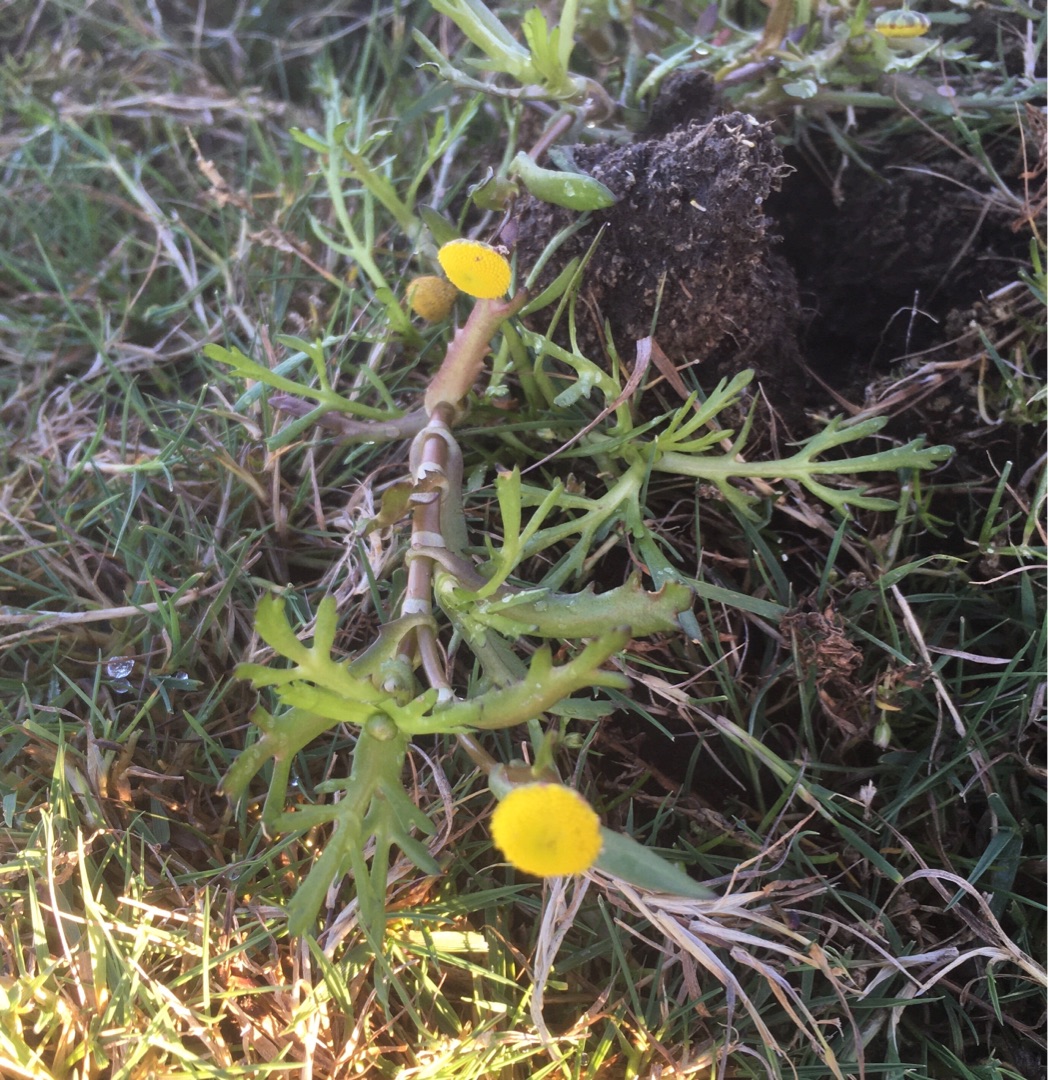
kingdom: Plantae
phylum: Tracheophyta
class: Magnoliopsida
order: Asterales
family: Asteraceae
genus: Cotula
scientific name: Cotula coronopifolia
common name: Firkløft
